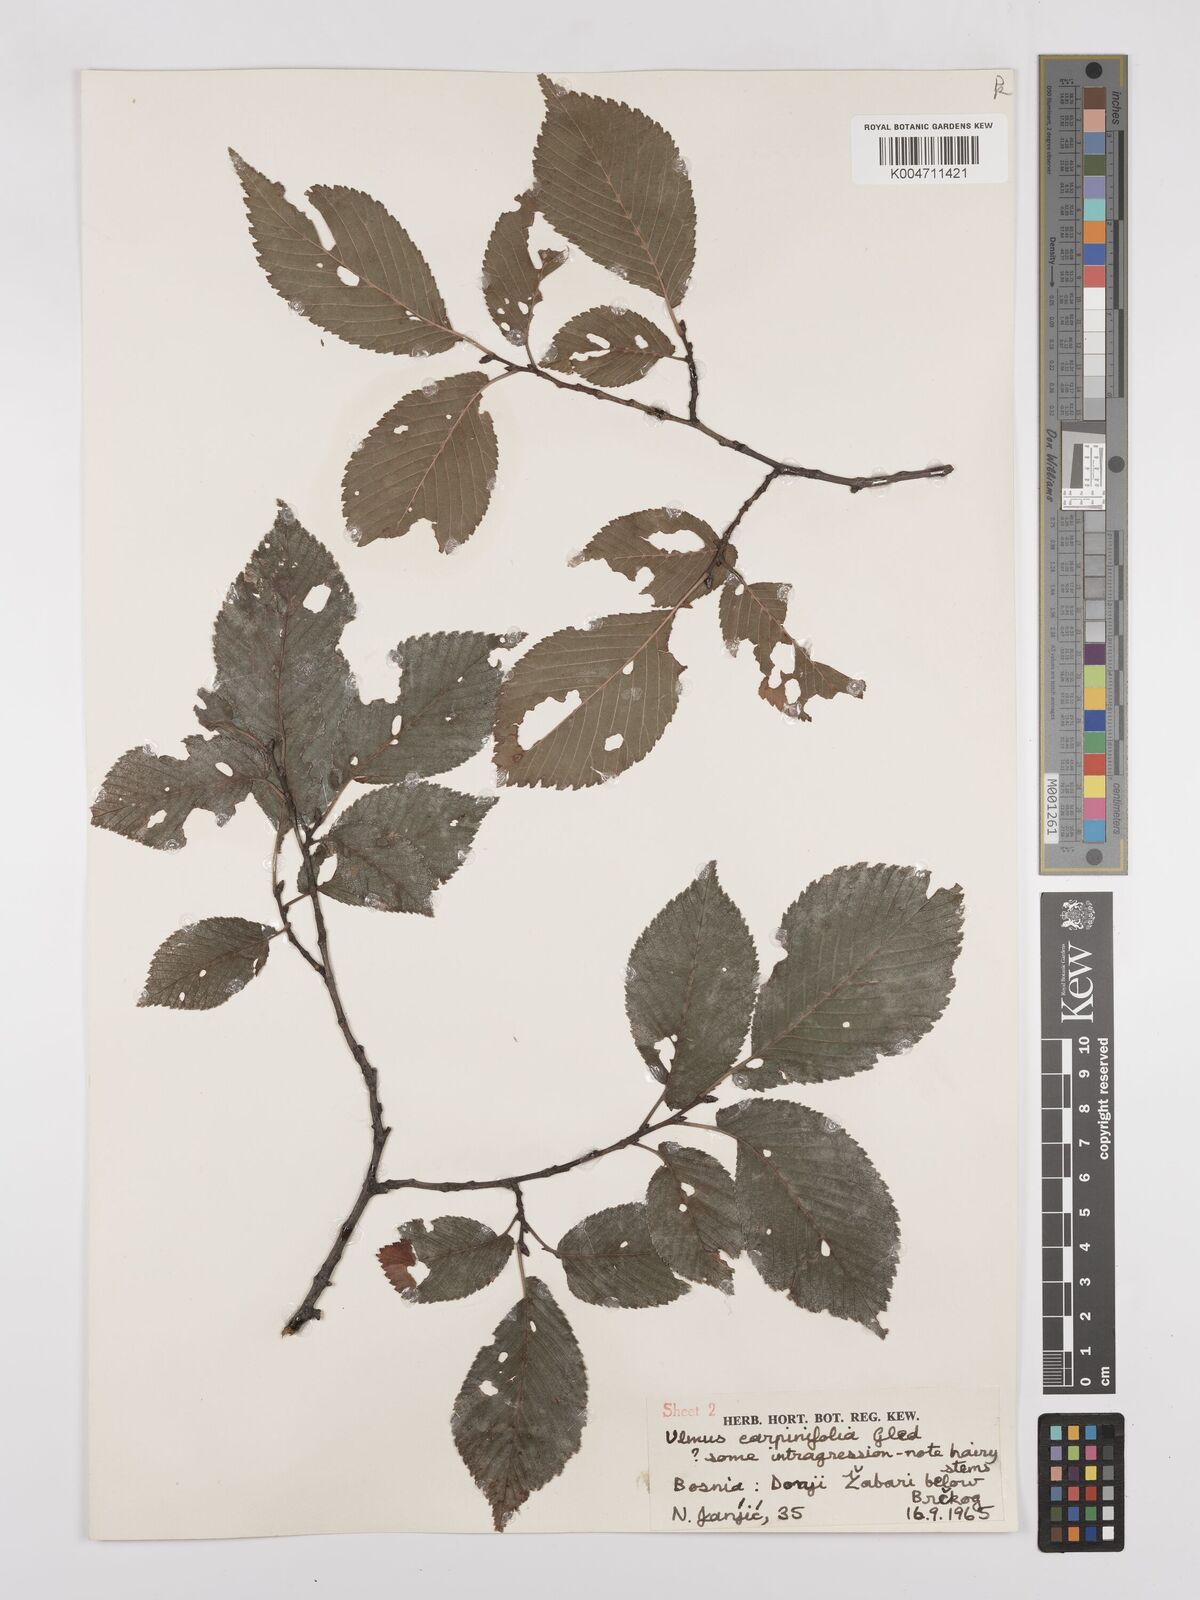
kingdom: Plantae
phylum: Tracheophyta
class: Magnoliopsida
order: Rosales
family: Ulmaceae
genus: Ulmus
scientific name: Ulmus minor
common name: Small-leaved elm
